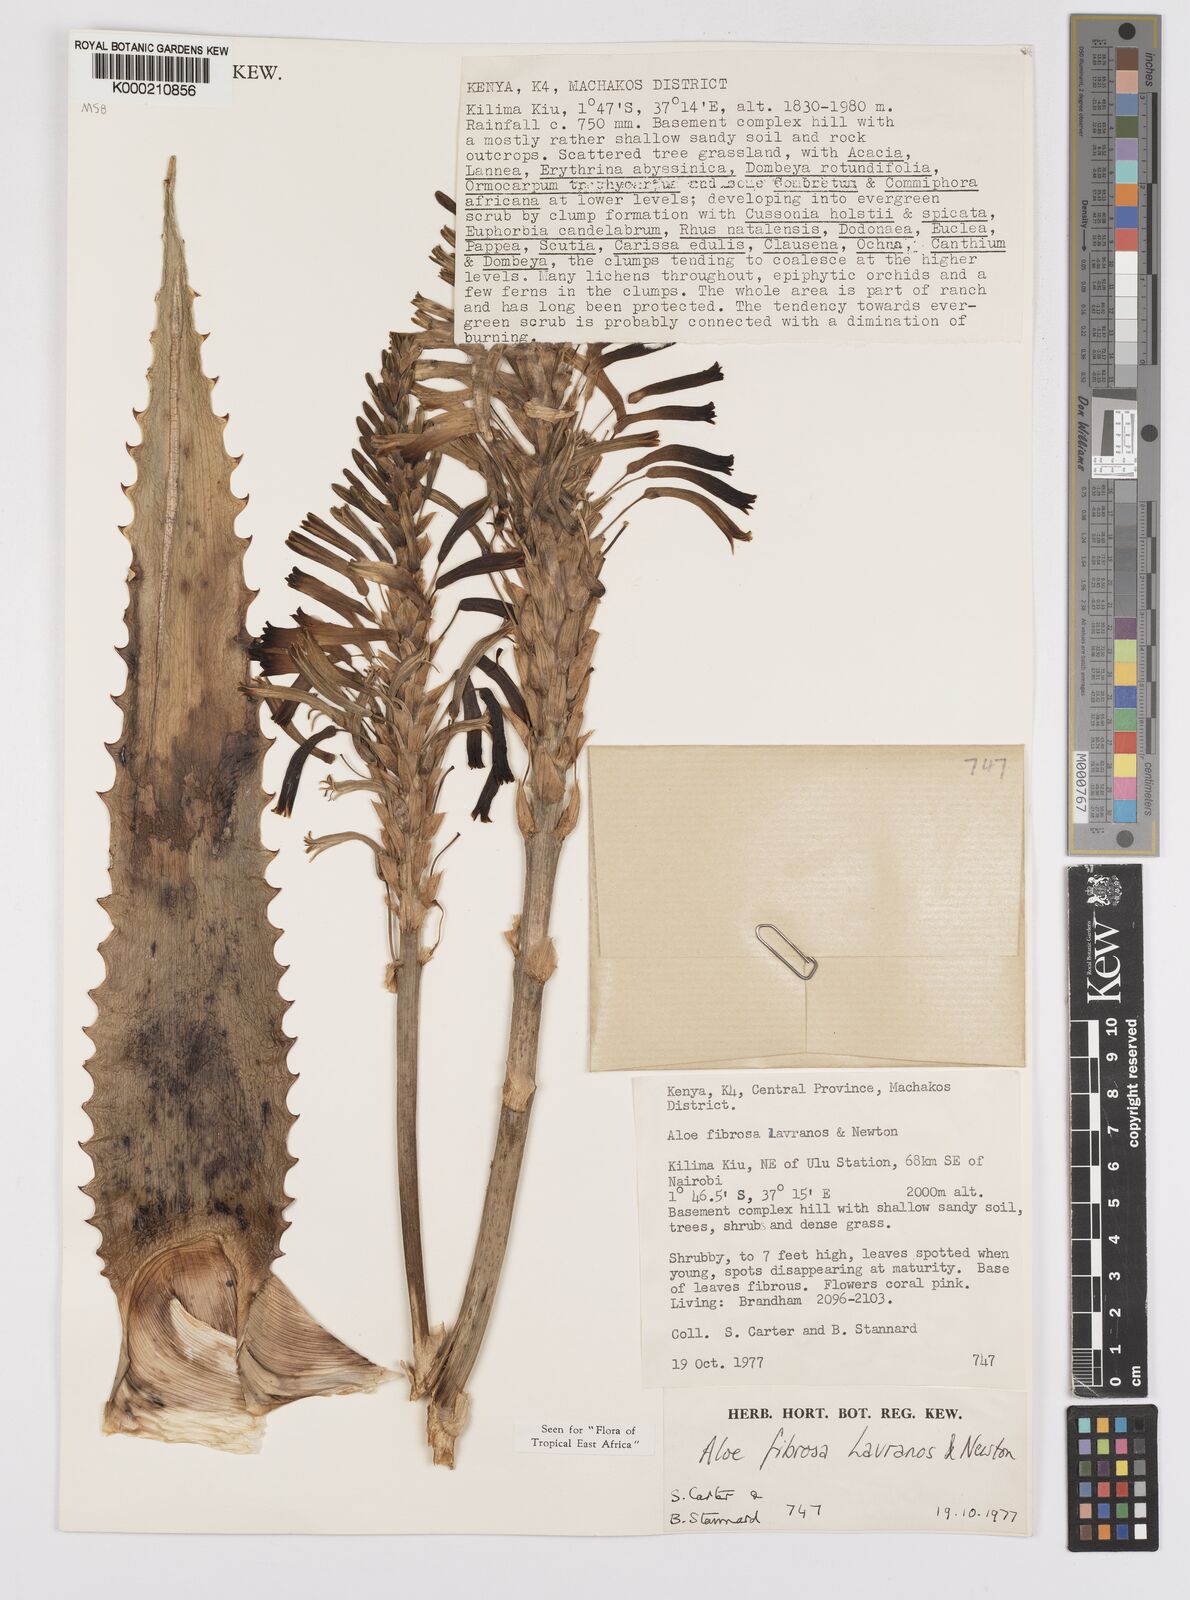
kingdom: Plantae
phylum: Tracheophyta
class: Liliopsida
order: Asparagales
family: Asphodelaceae
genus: Aloe
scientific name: Aloe fibrosa
